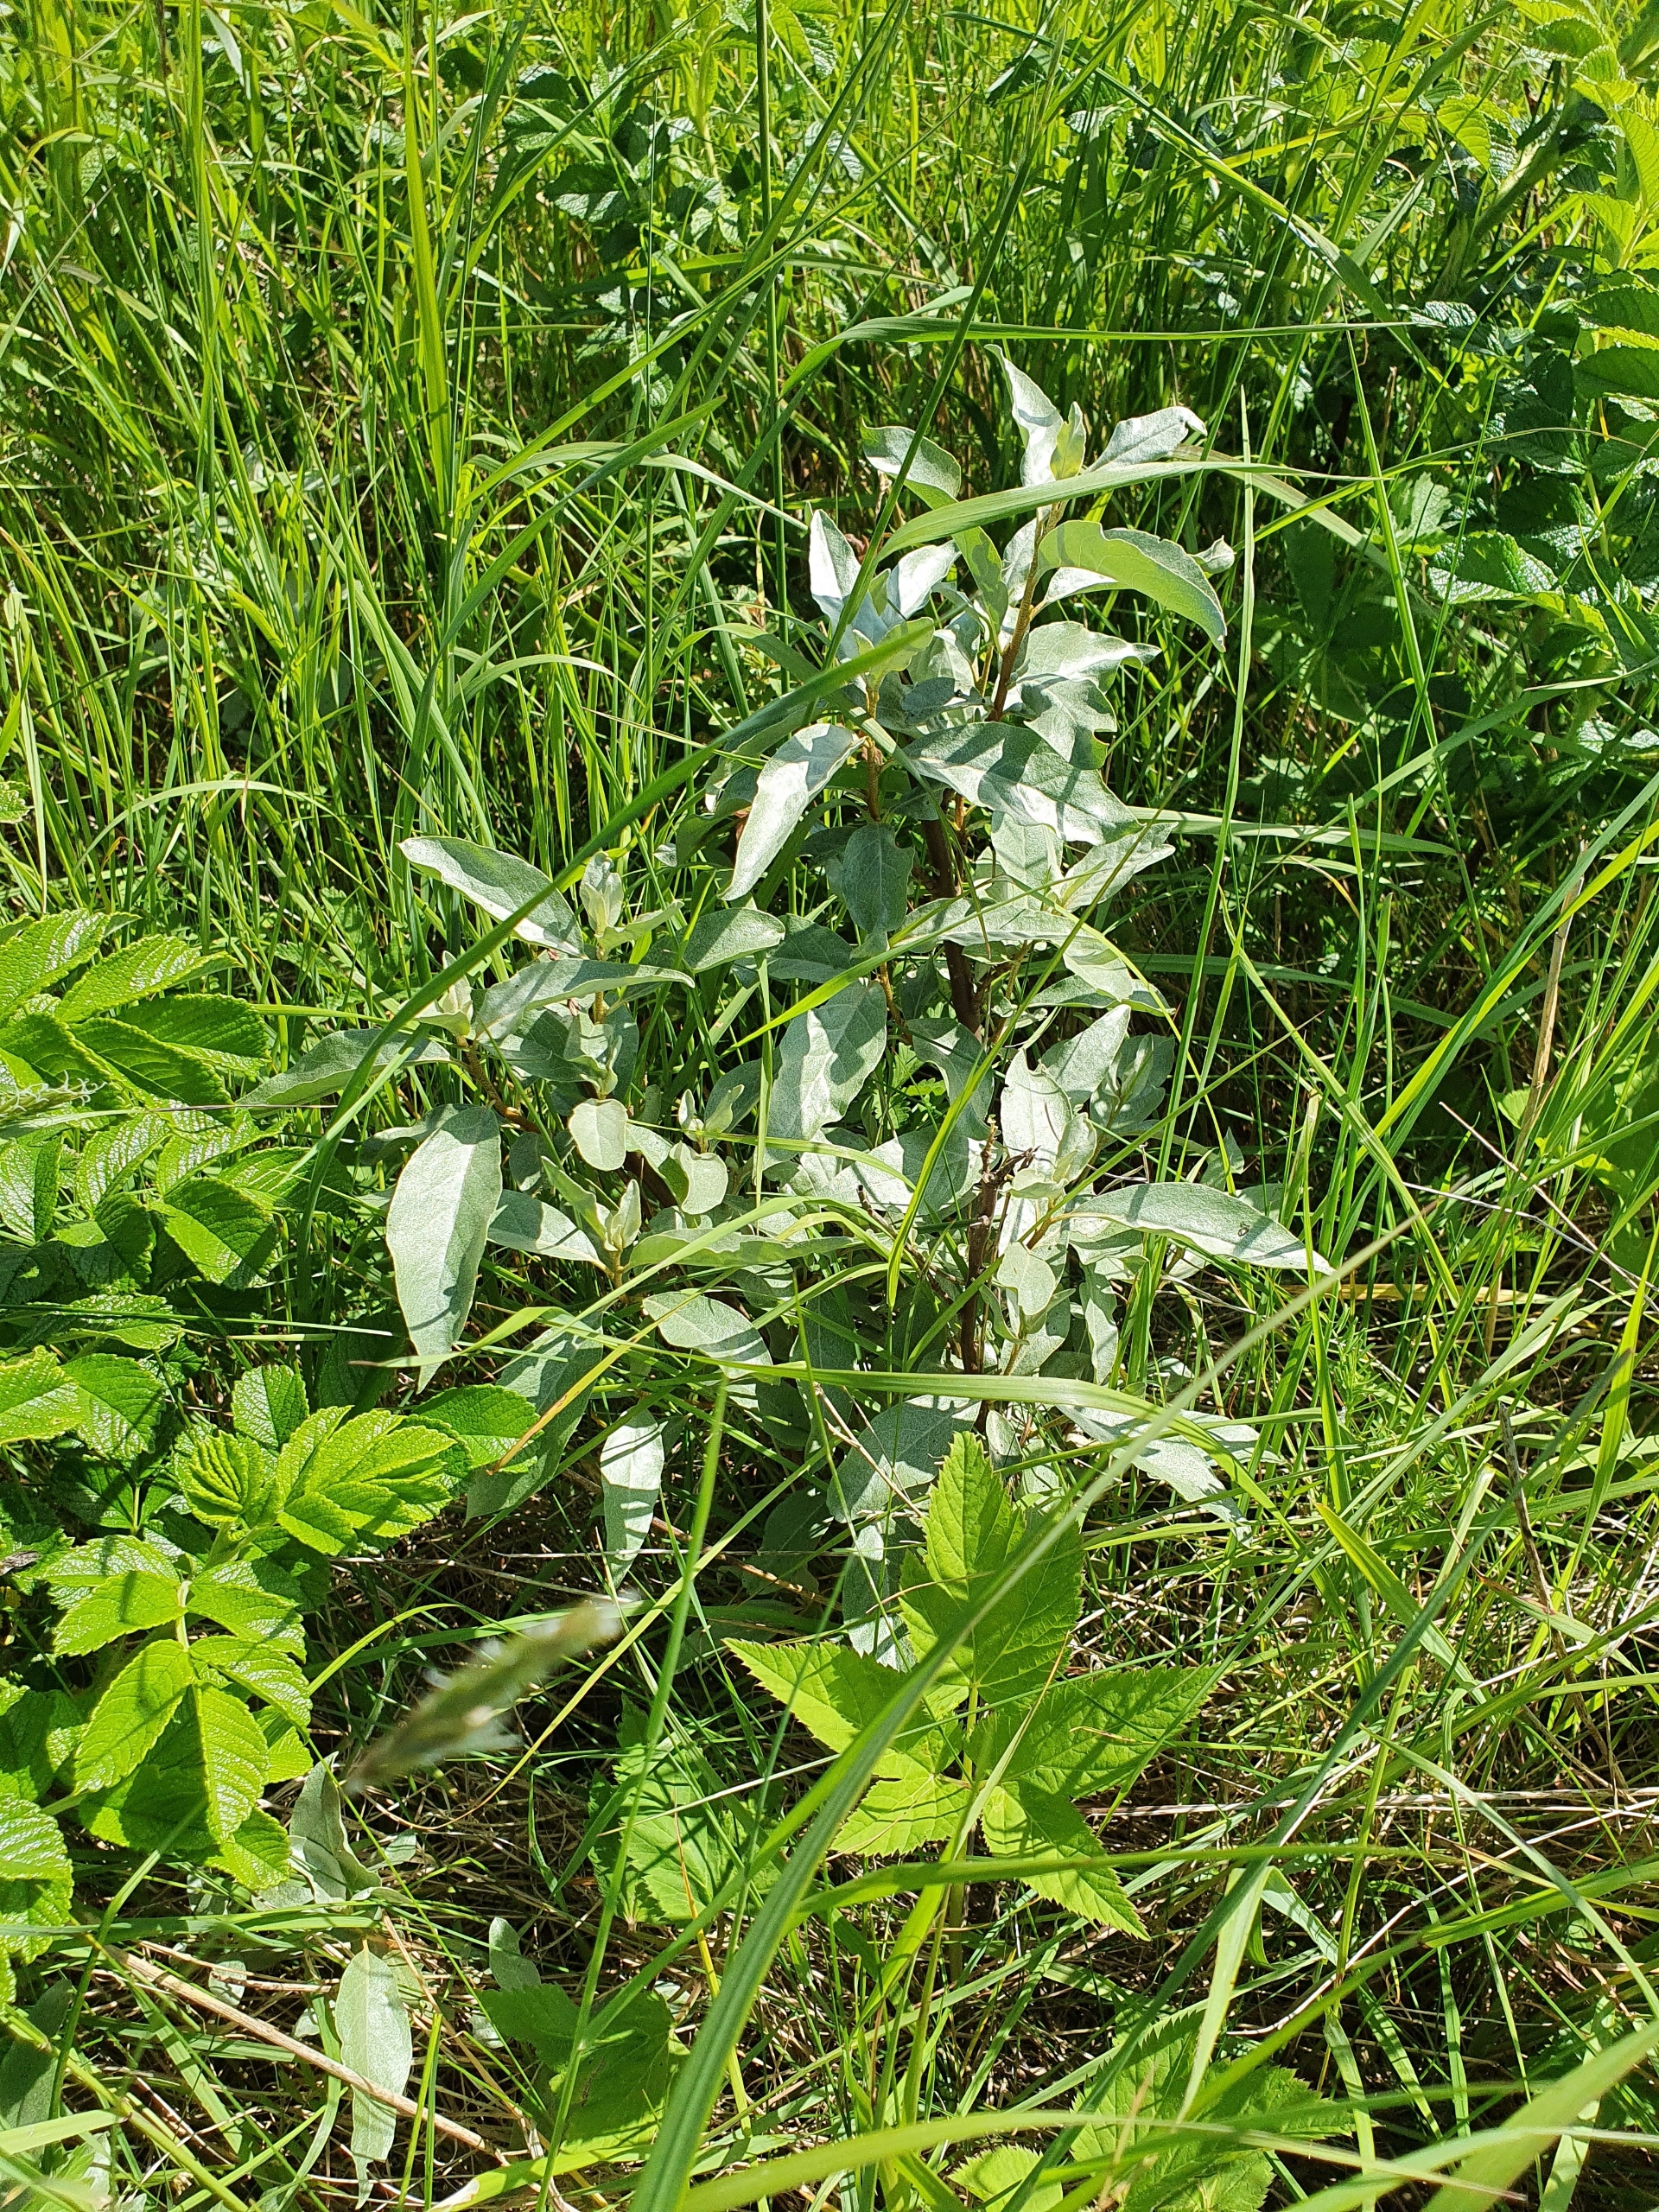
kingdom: Plantae
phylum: Tracheophyta
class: Magnoliopsida
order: Rosales
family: Elaeagnaceae
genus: Elaeagnus
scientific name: Elaeagnus commutata
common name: Sølvblad
